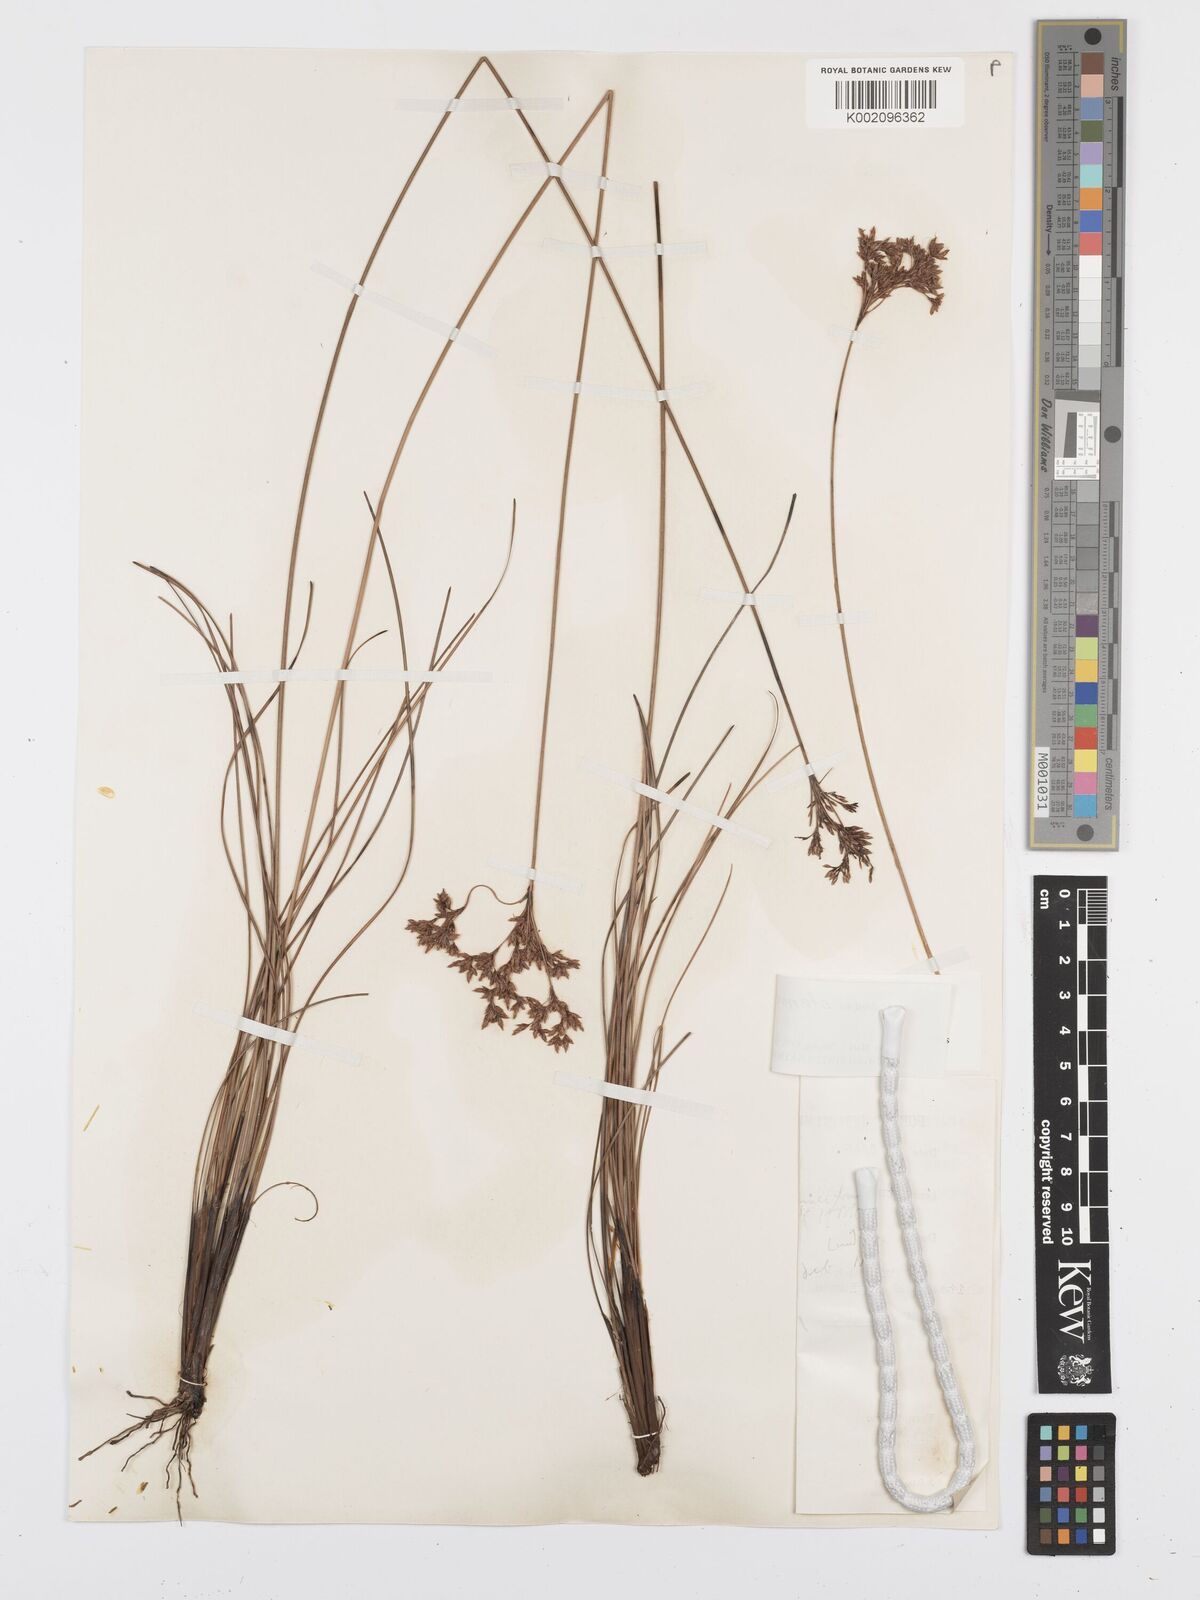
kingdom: Plantae
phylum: Tracheophyta
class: Liliopsida
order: Poales
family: Cyperaceae
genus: Bulbostylis
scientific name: Bulbostylis stenocarpa
